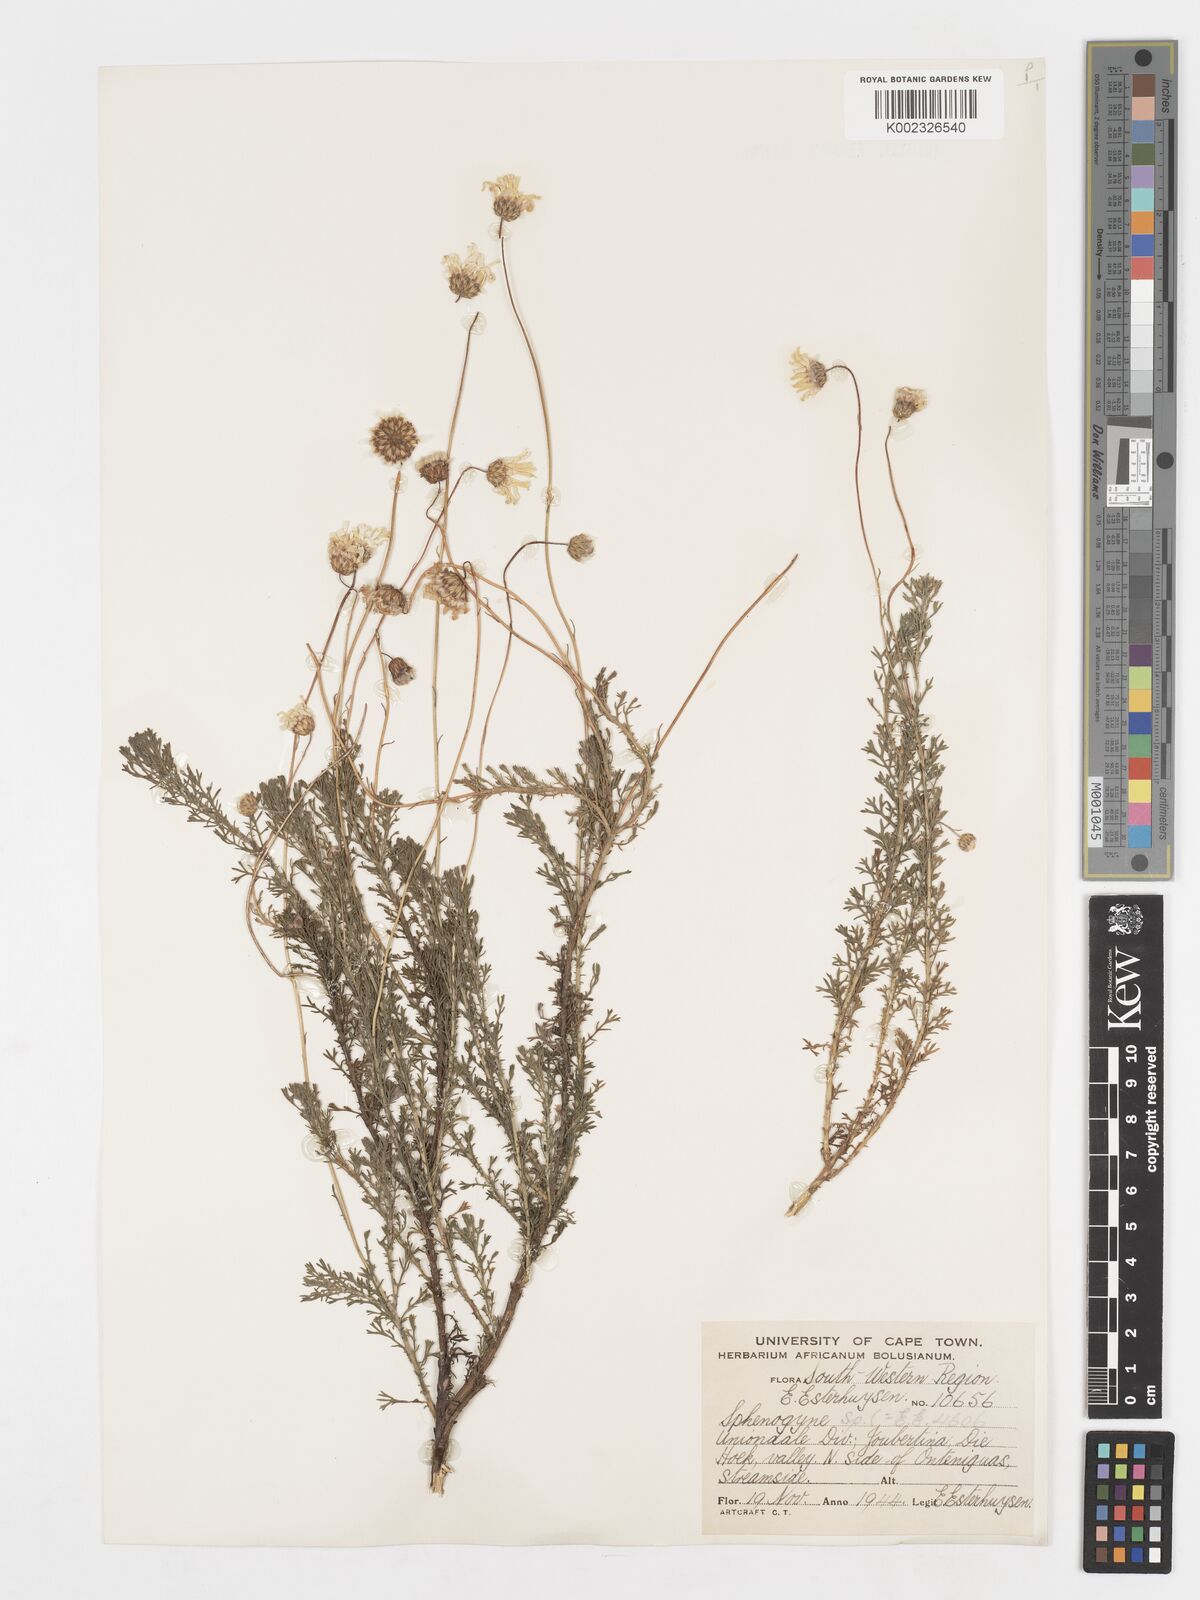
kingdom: Plantae
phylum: Tracheophyta
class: Magnoliopsida
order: Asterales
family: Asteraceae
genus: Ursinia
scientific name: Ursinia anethoides
